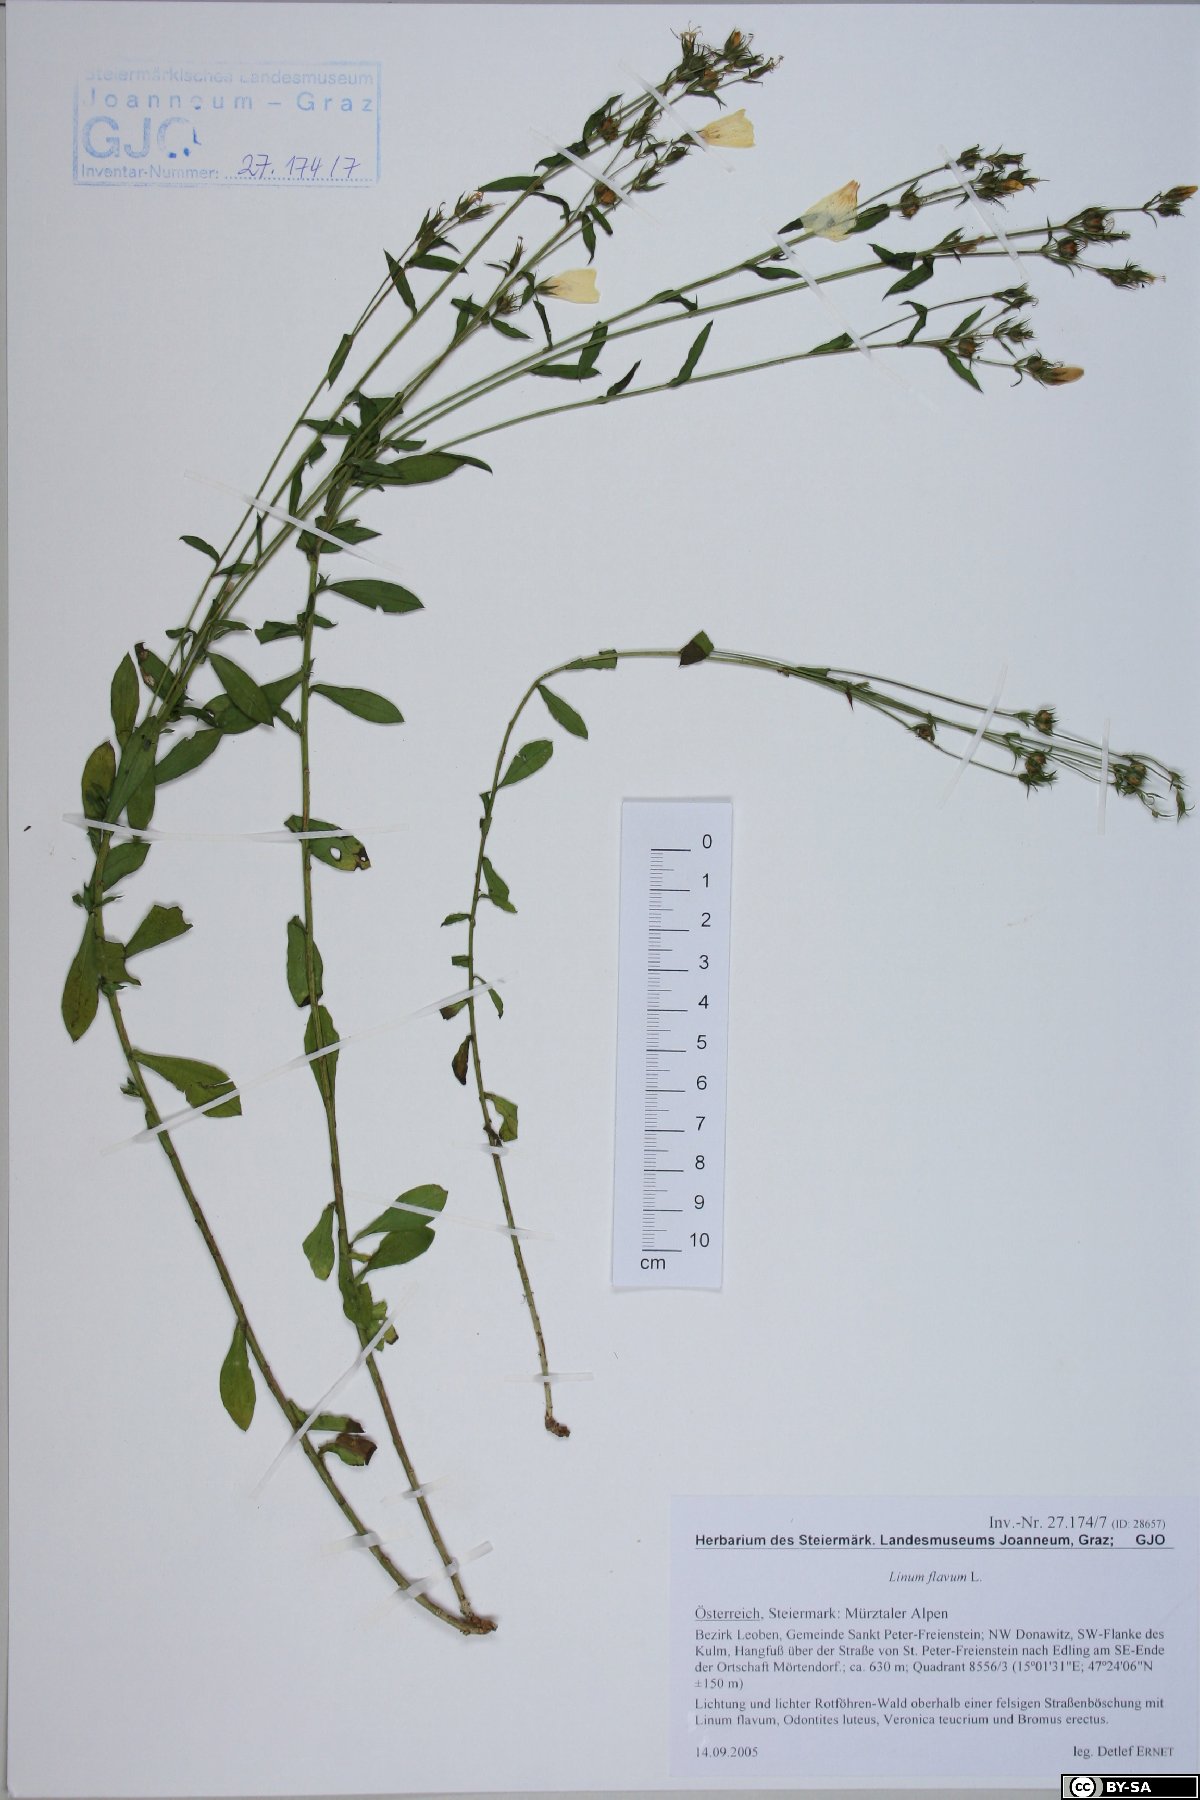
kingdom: Plantae
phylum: Tracheophyta
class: Magnoliopsida
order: Malpighiales
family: Linaceae
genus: Linum
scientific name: Linum flavum
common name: Yellow flax
